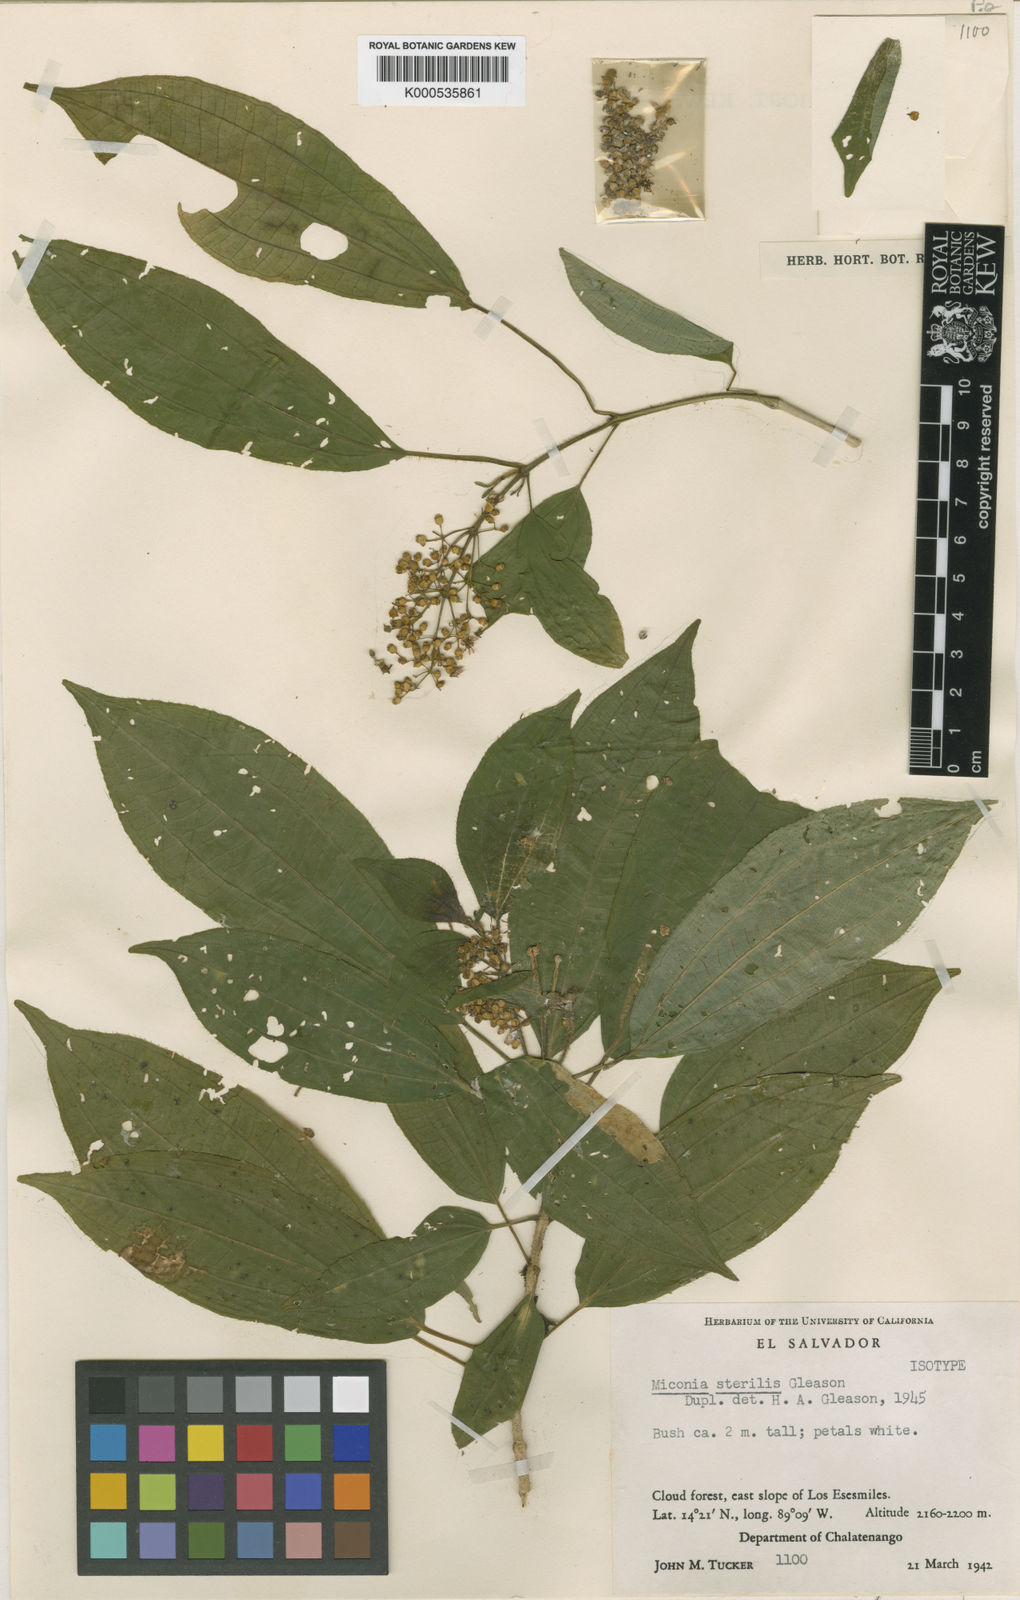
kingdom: Plantae
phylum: Tracheophyta
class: Magnoliopsida
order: Myrtales
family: Melastomataceae
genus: Miconia
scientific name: Miconia sterilis
